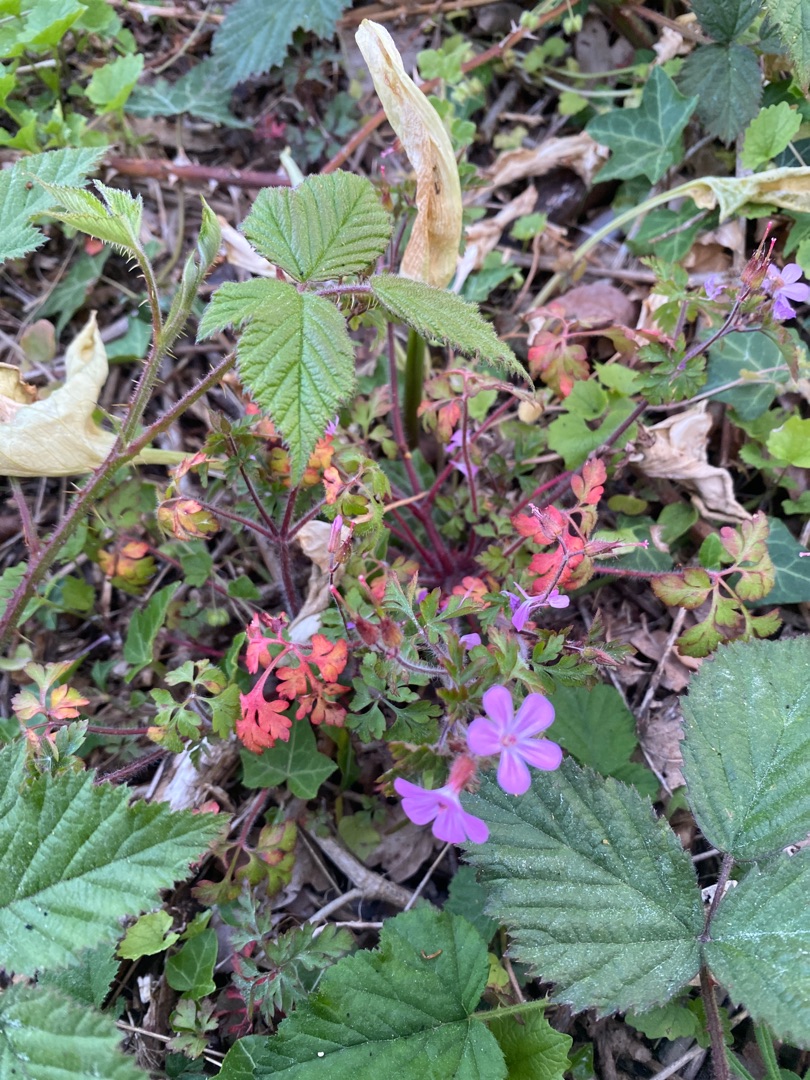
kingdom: Plantae
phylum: Tracheophyta
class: Magnoliopsida
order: Geraniales
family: Geraniaceae
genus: Geranium
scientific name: Geranium robertianum
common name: Stinkende storkenæb
